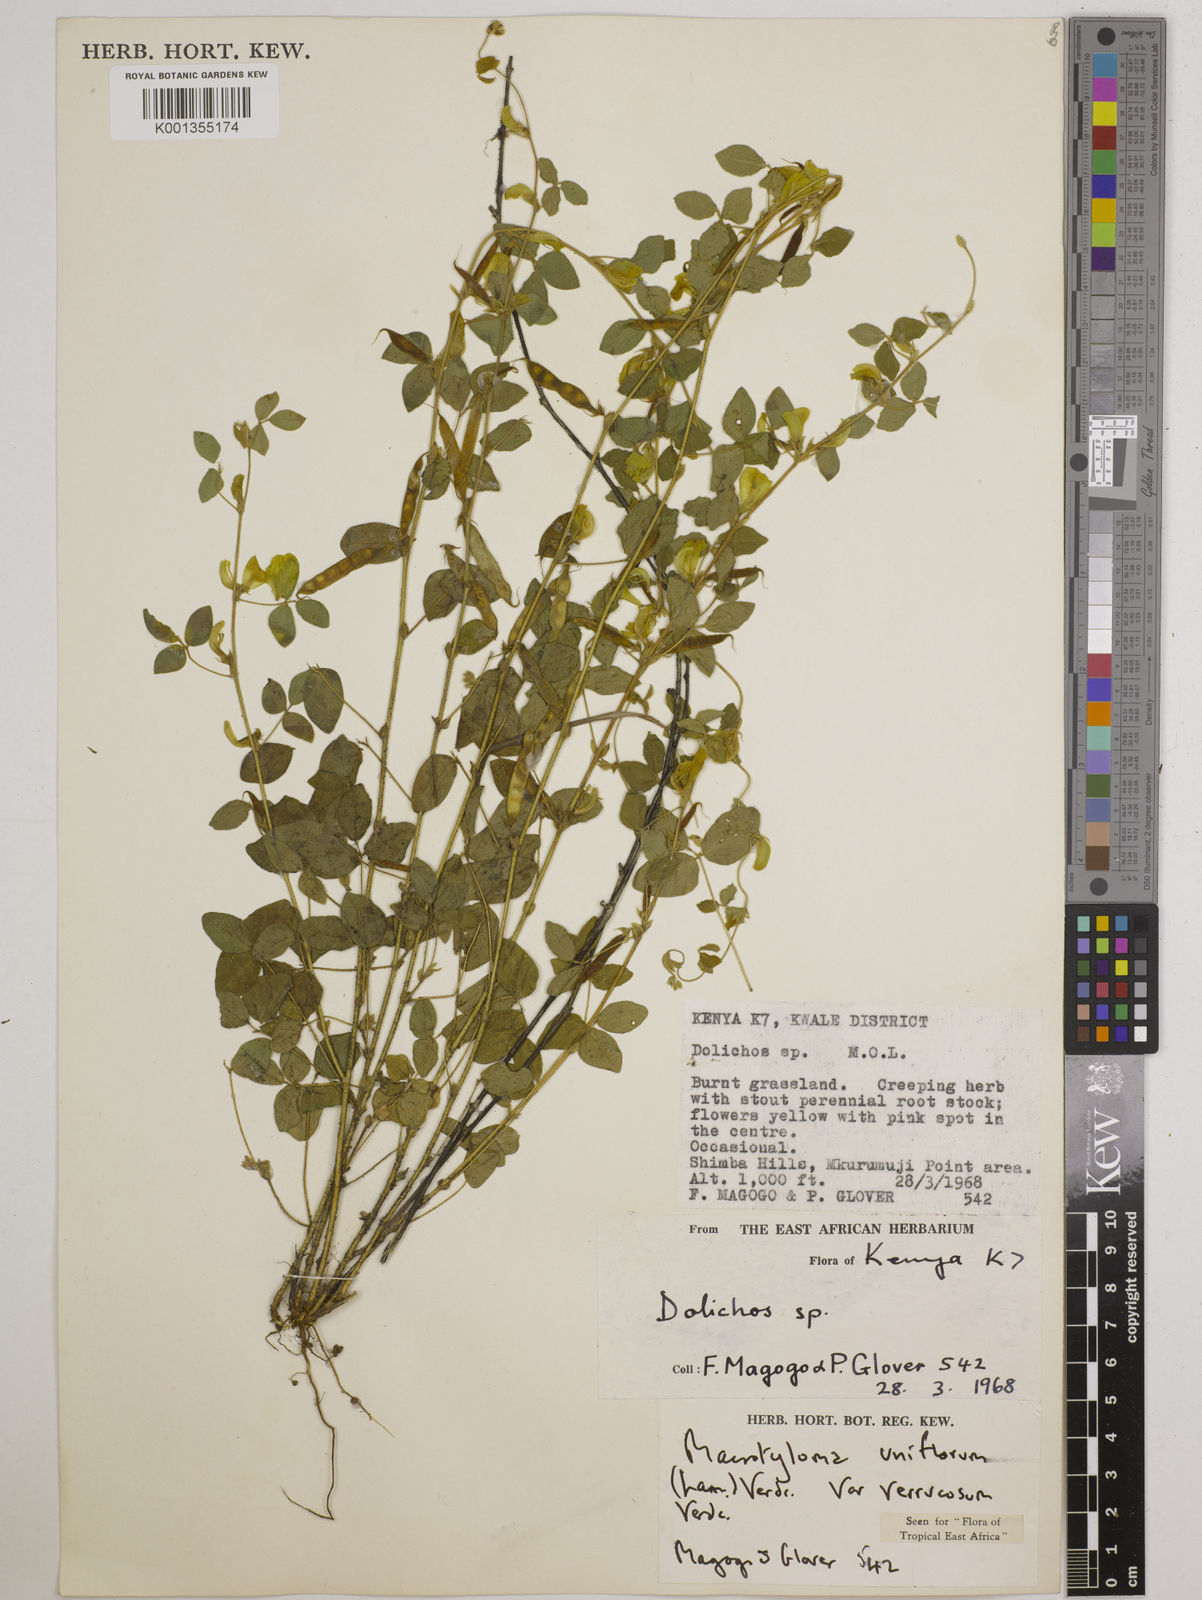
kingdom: Plantae
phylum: Tracheophyta
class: Magnoliopsida
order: Fabales
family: Fabaceae
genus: Macrotyloma
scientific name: Macrotyloma
